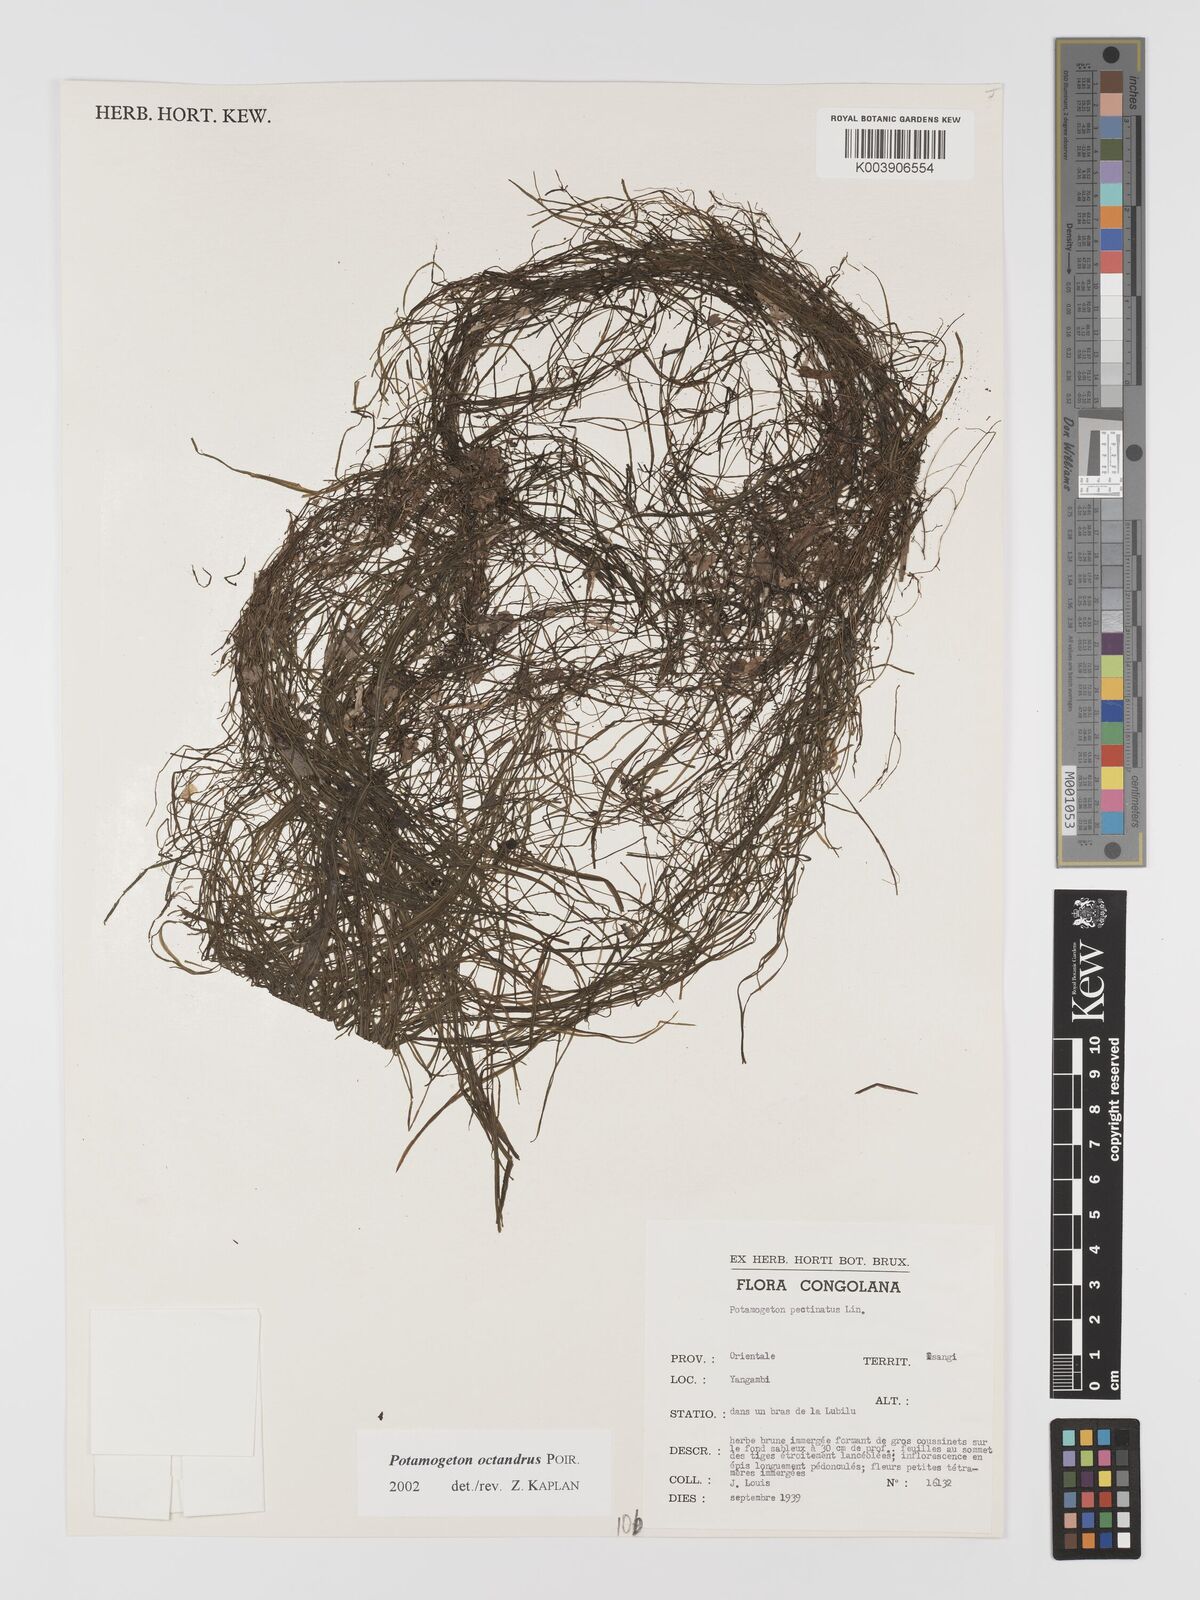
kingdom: Plantae
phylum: Tracheophyta
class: Liliopsida
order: Alismatales
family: Potamogetonaceae
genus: Potamogeton
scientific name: Potamogeton octandrus
